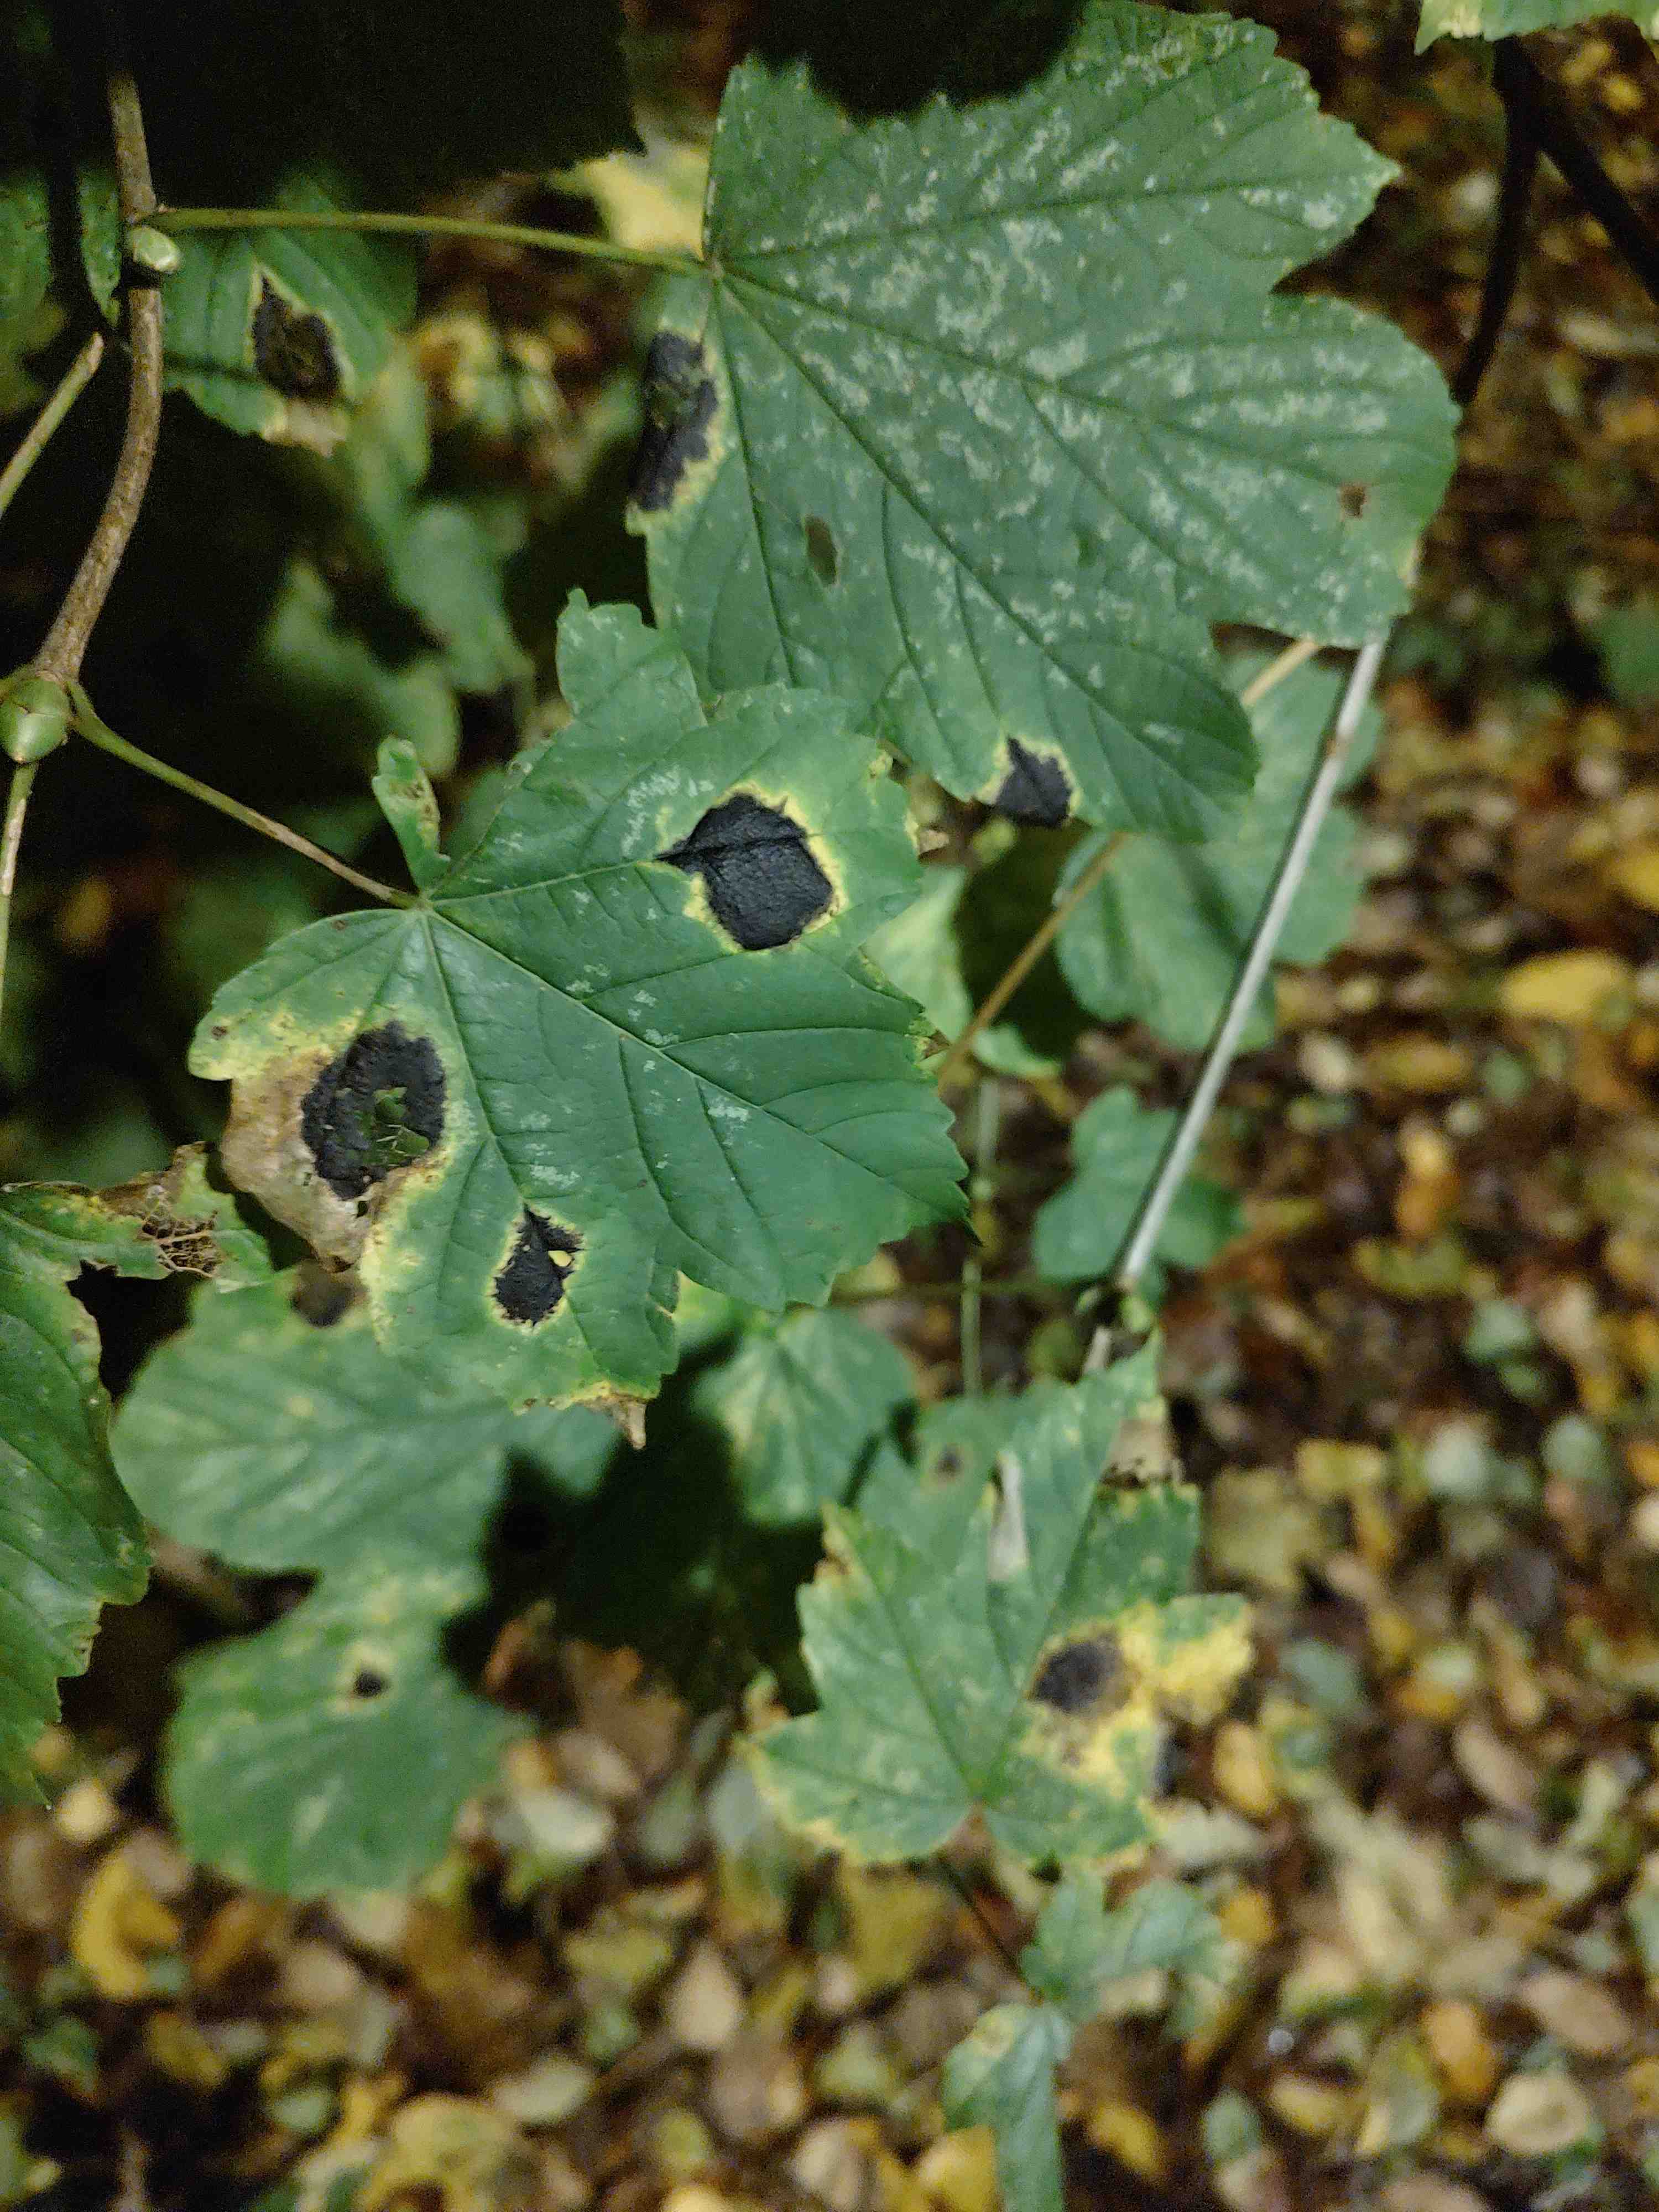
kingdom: Fungi
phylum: Ascomycota
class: Leotiomycetes
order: Rhytismatales
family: Rhytismataceae
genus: Rhytisma
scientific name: Rhytisma acerinum
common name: ahorn-rynkeplet
